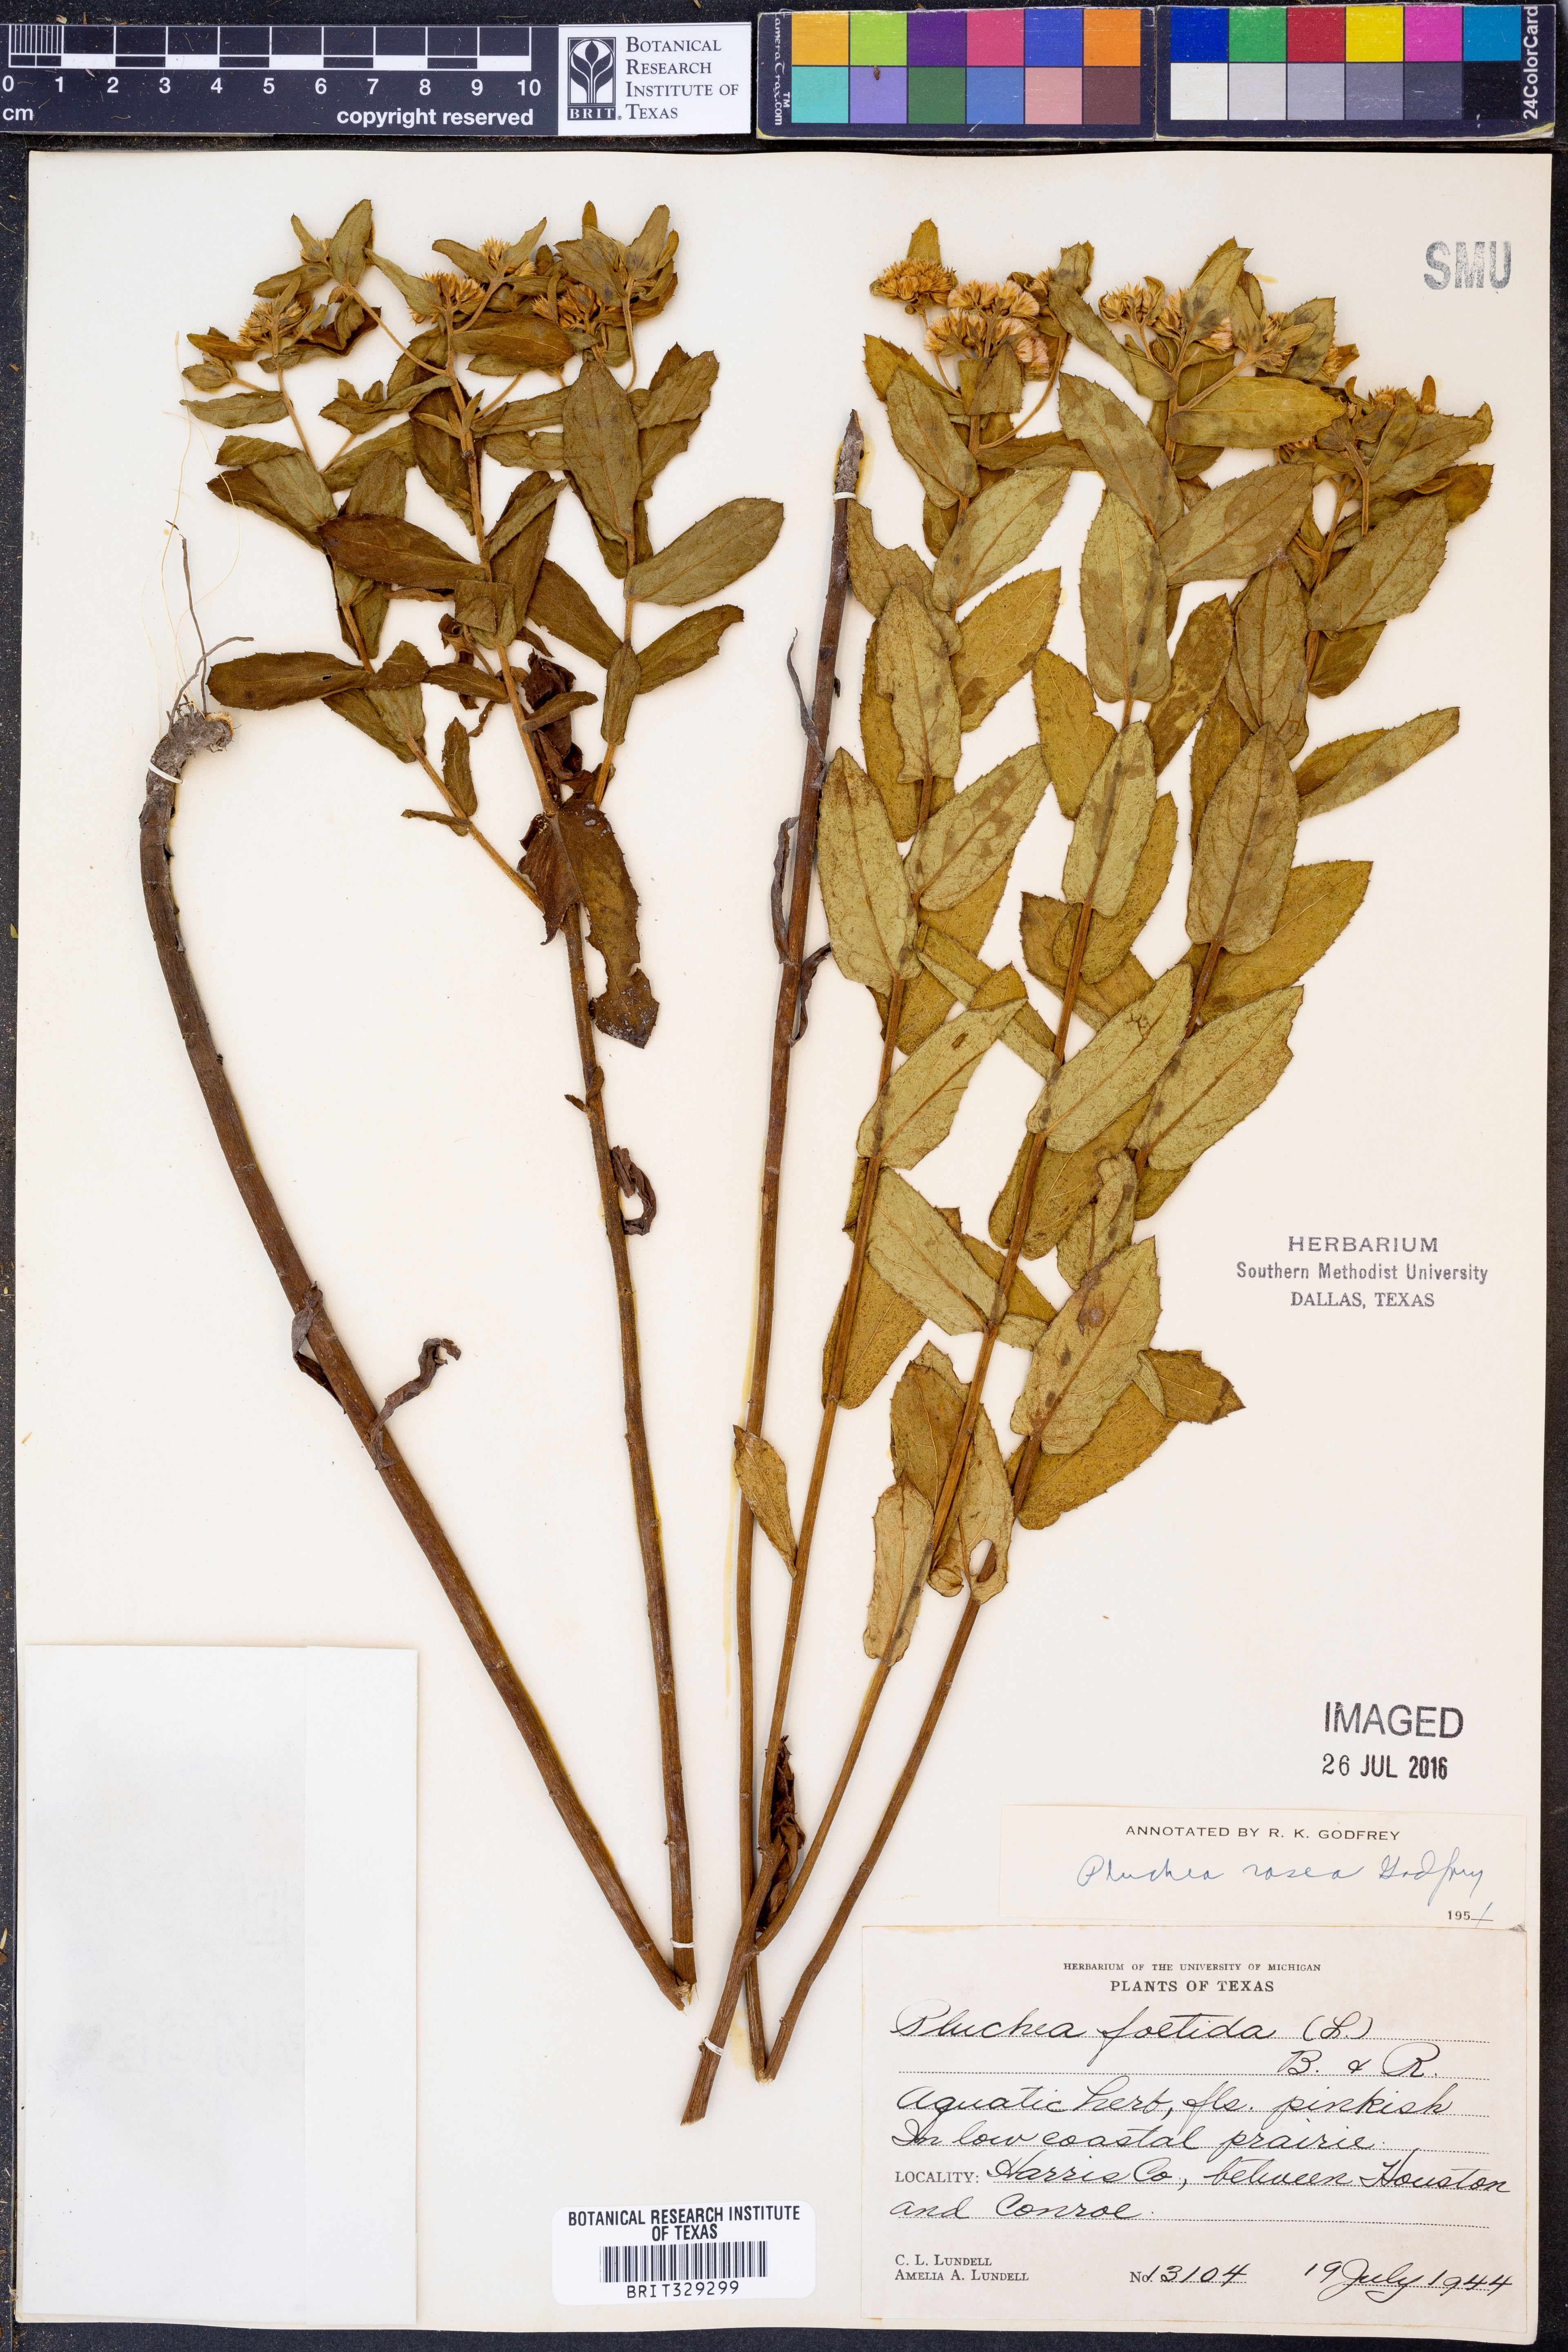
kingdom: Plantae
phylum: Tracheophyta
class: Magnoliopsida
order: Asterales
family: Asteraceae
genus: Pluchea
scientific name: Pluchea baccharis
